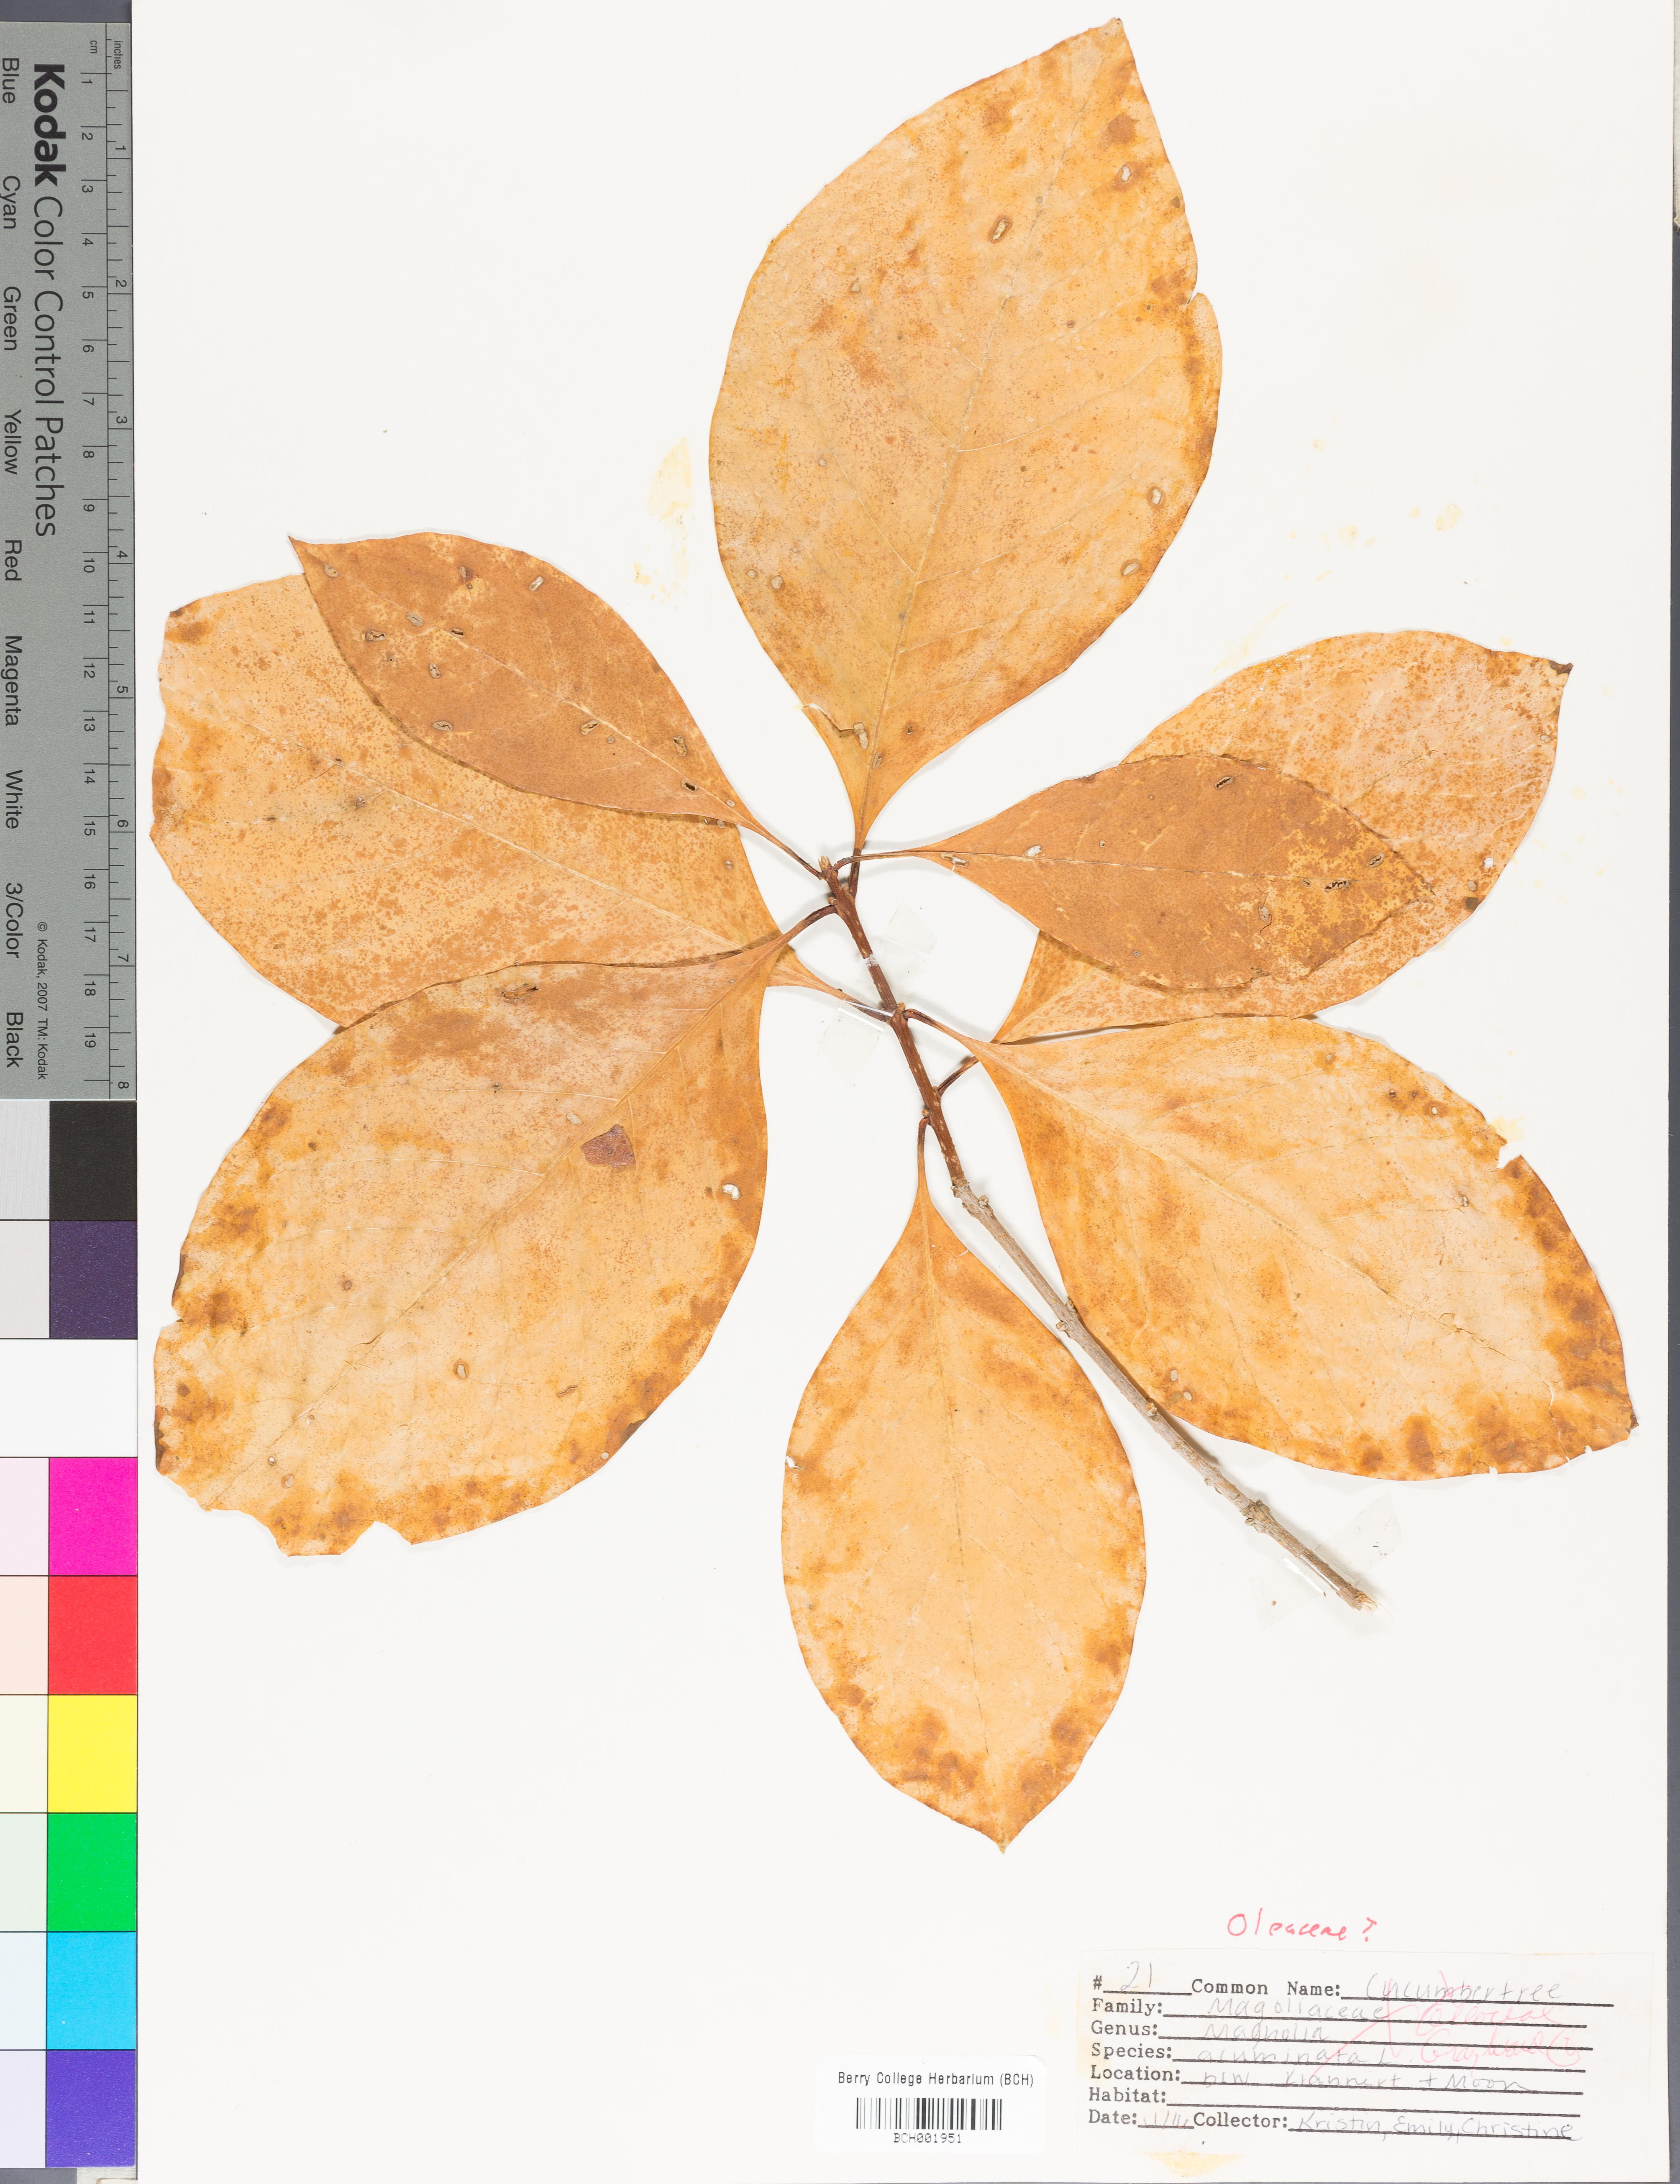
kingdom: Plantae
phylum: Tracheophyta
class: Magnoliopsida
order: Magnoliales
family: Magnoliaceae
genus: Magnolia
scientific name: Magnolia acuminata
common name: Cucumber magnolia
